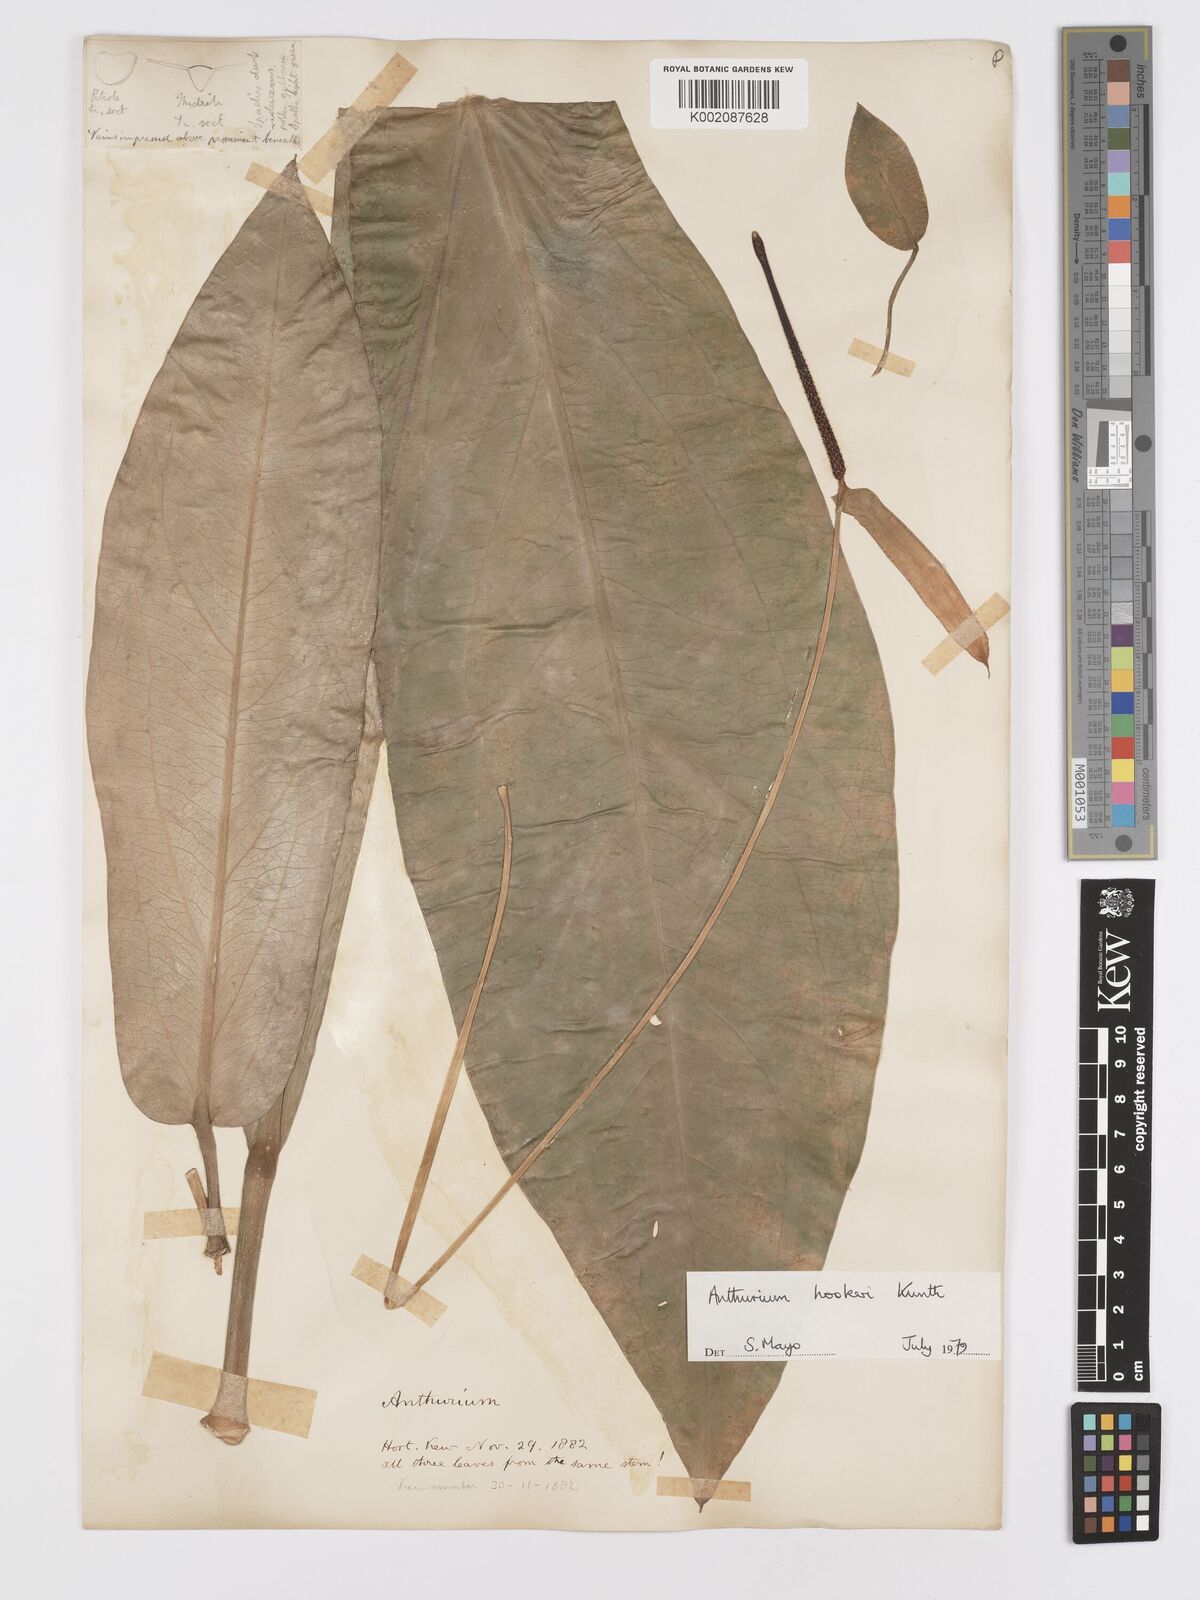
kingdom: Plantae
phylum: Tracheophyta
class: Liliopsida
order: Alismatales
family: Araceae
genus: Anthurium
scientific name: Anthurium hookeri
